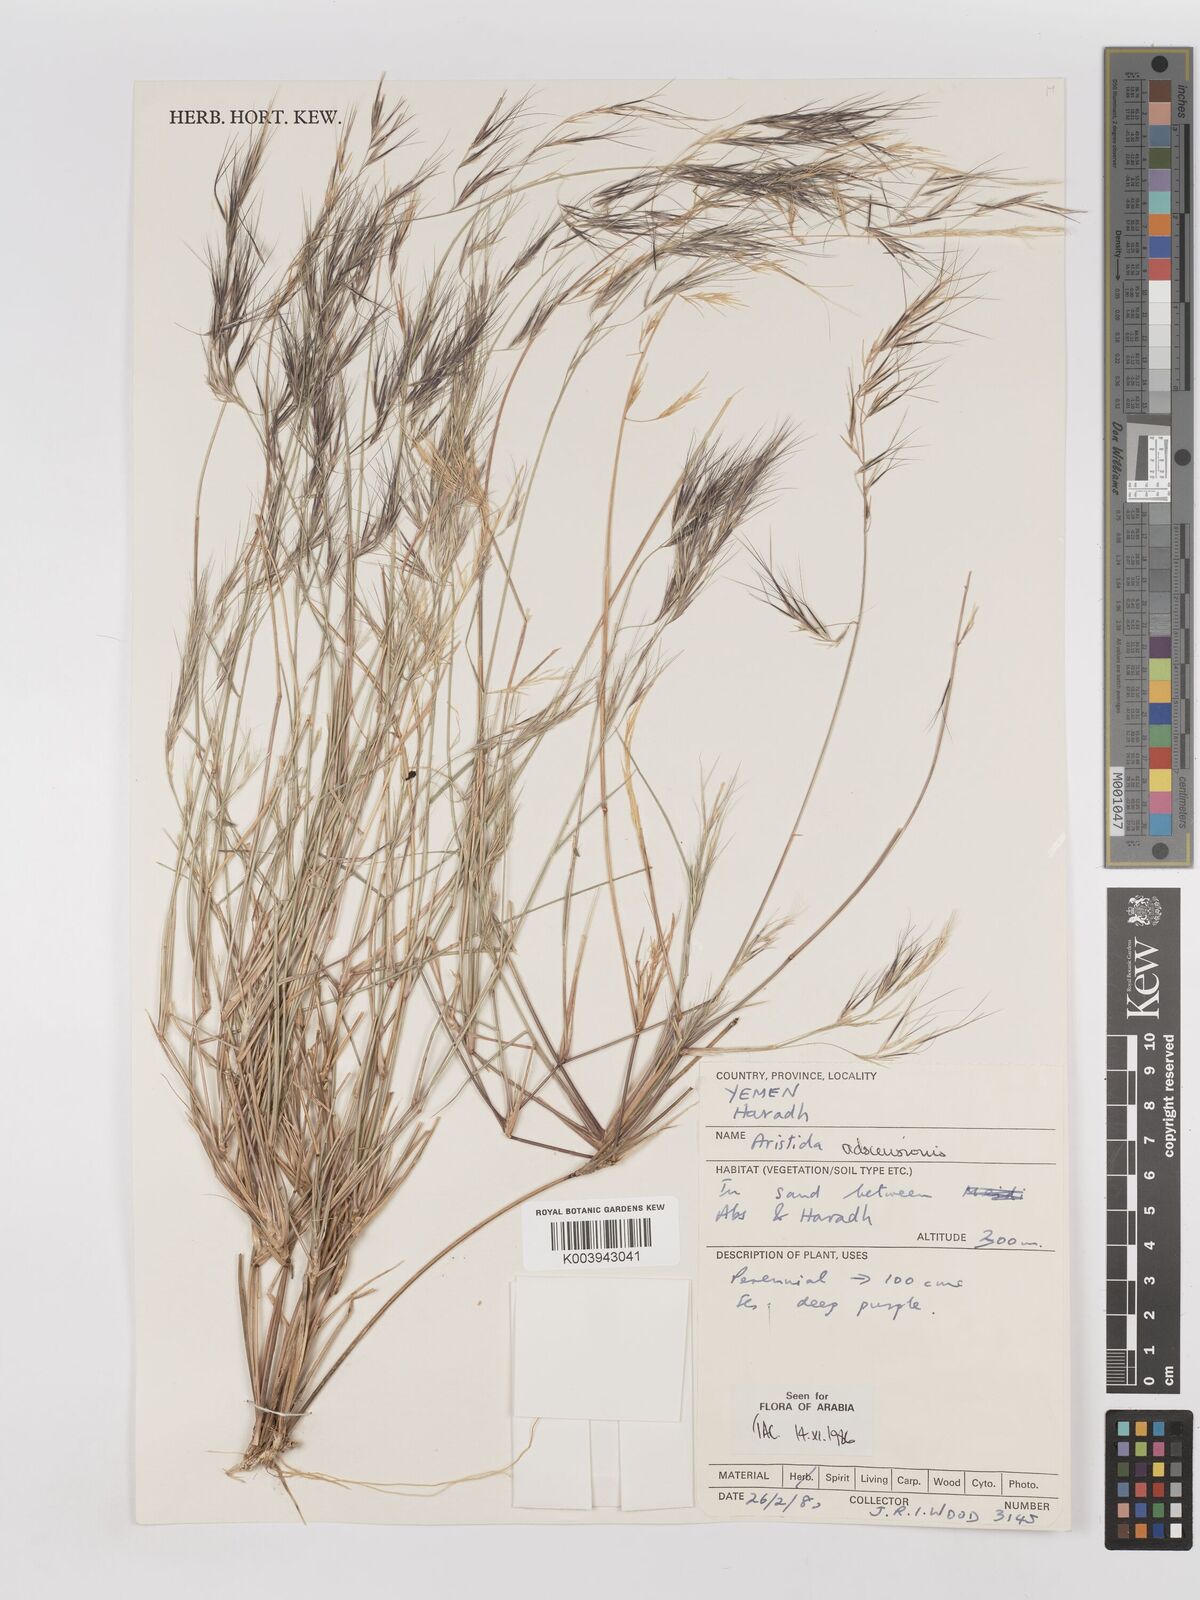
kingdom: Plantae
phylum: Tracheophyta
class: Liliopsida
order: Poales
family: Poaceae
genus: Aristida
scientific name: Aristida adscensionis
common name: Sixweeks threeawn
